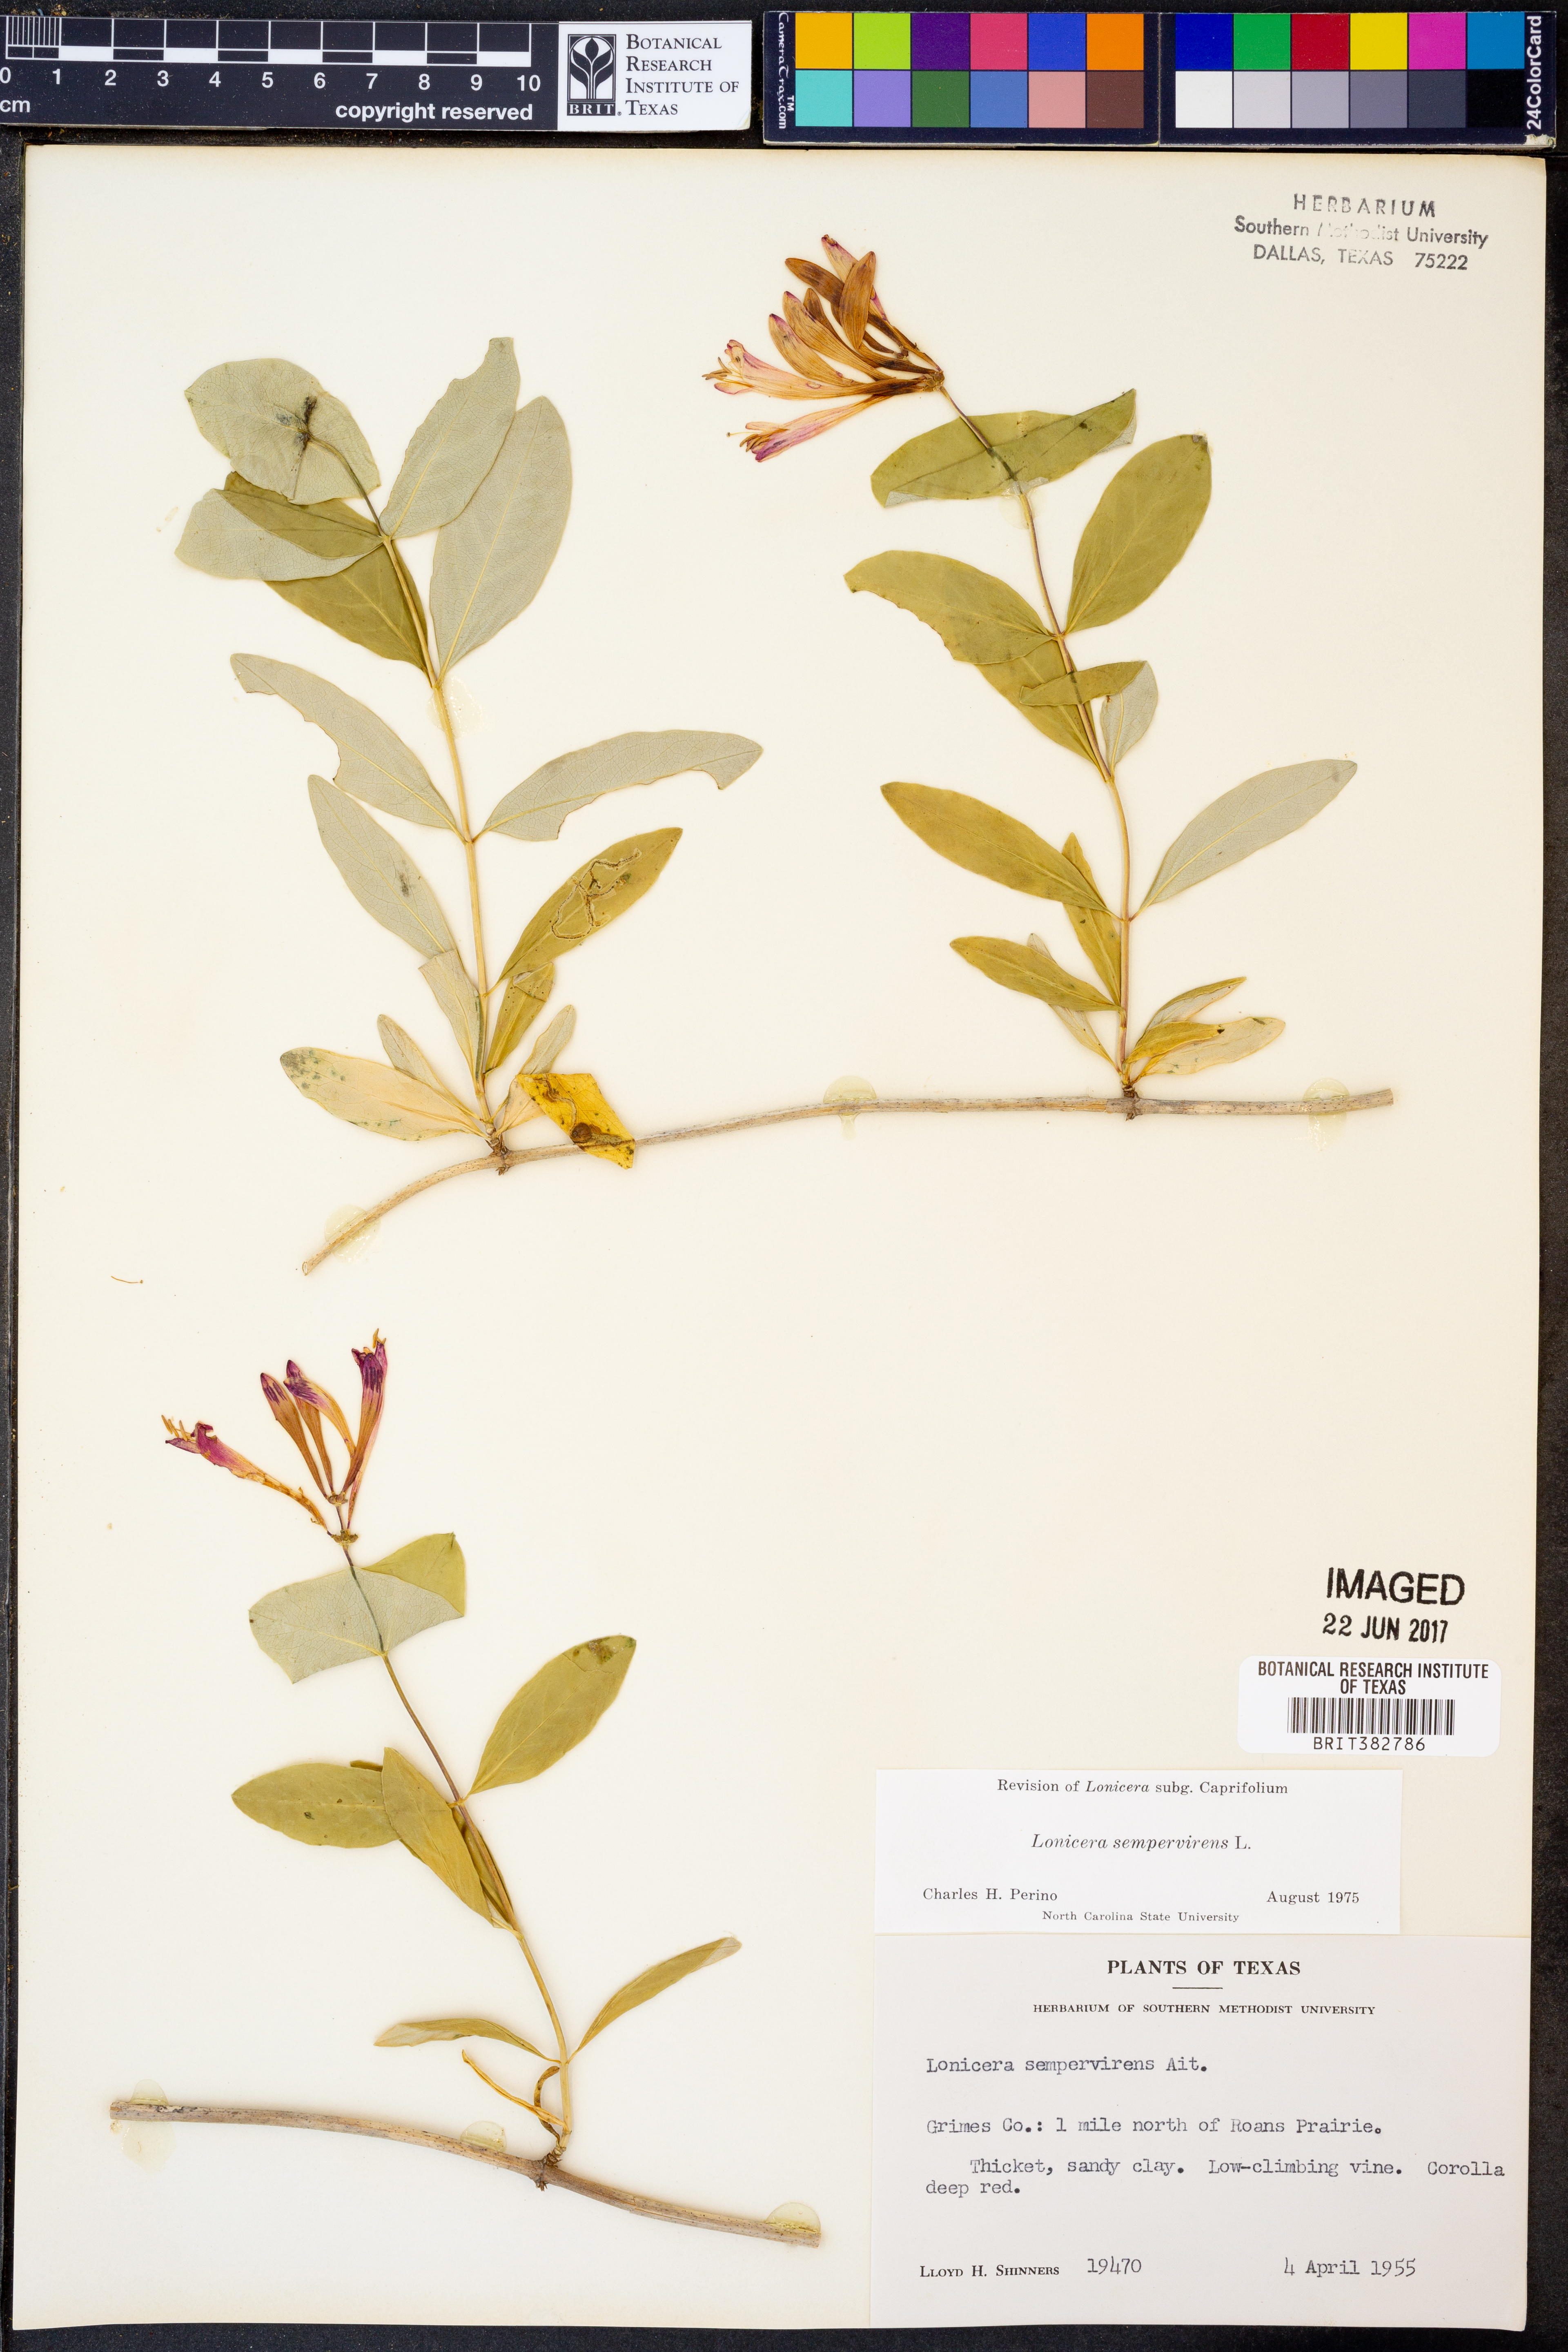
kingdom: Plantae
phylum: Tracheophyta
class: Magnoliopsida
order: Dipsacales
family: Caprifoliaceae
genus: Lonicera
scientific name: Lonicera sempervirens
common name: Coral honeysuckle
